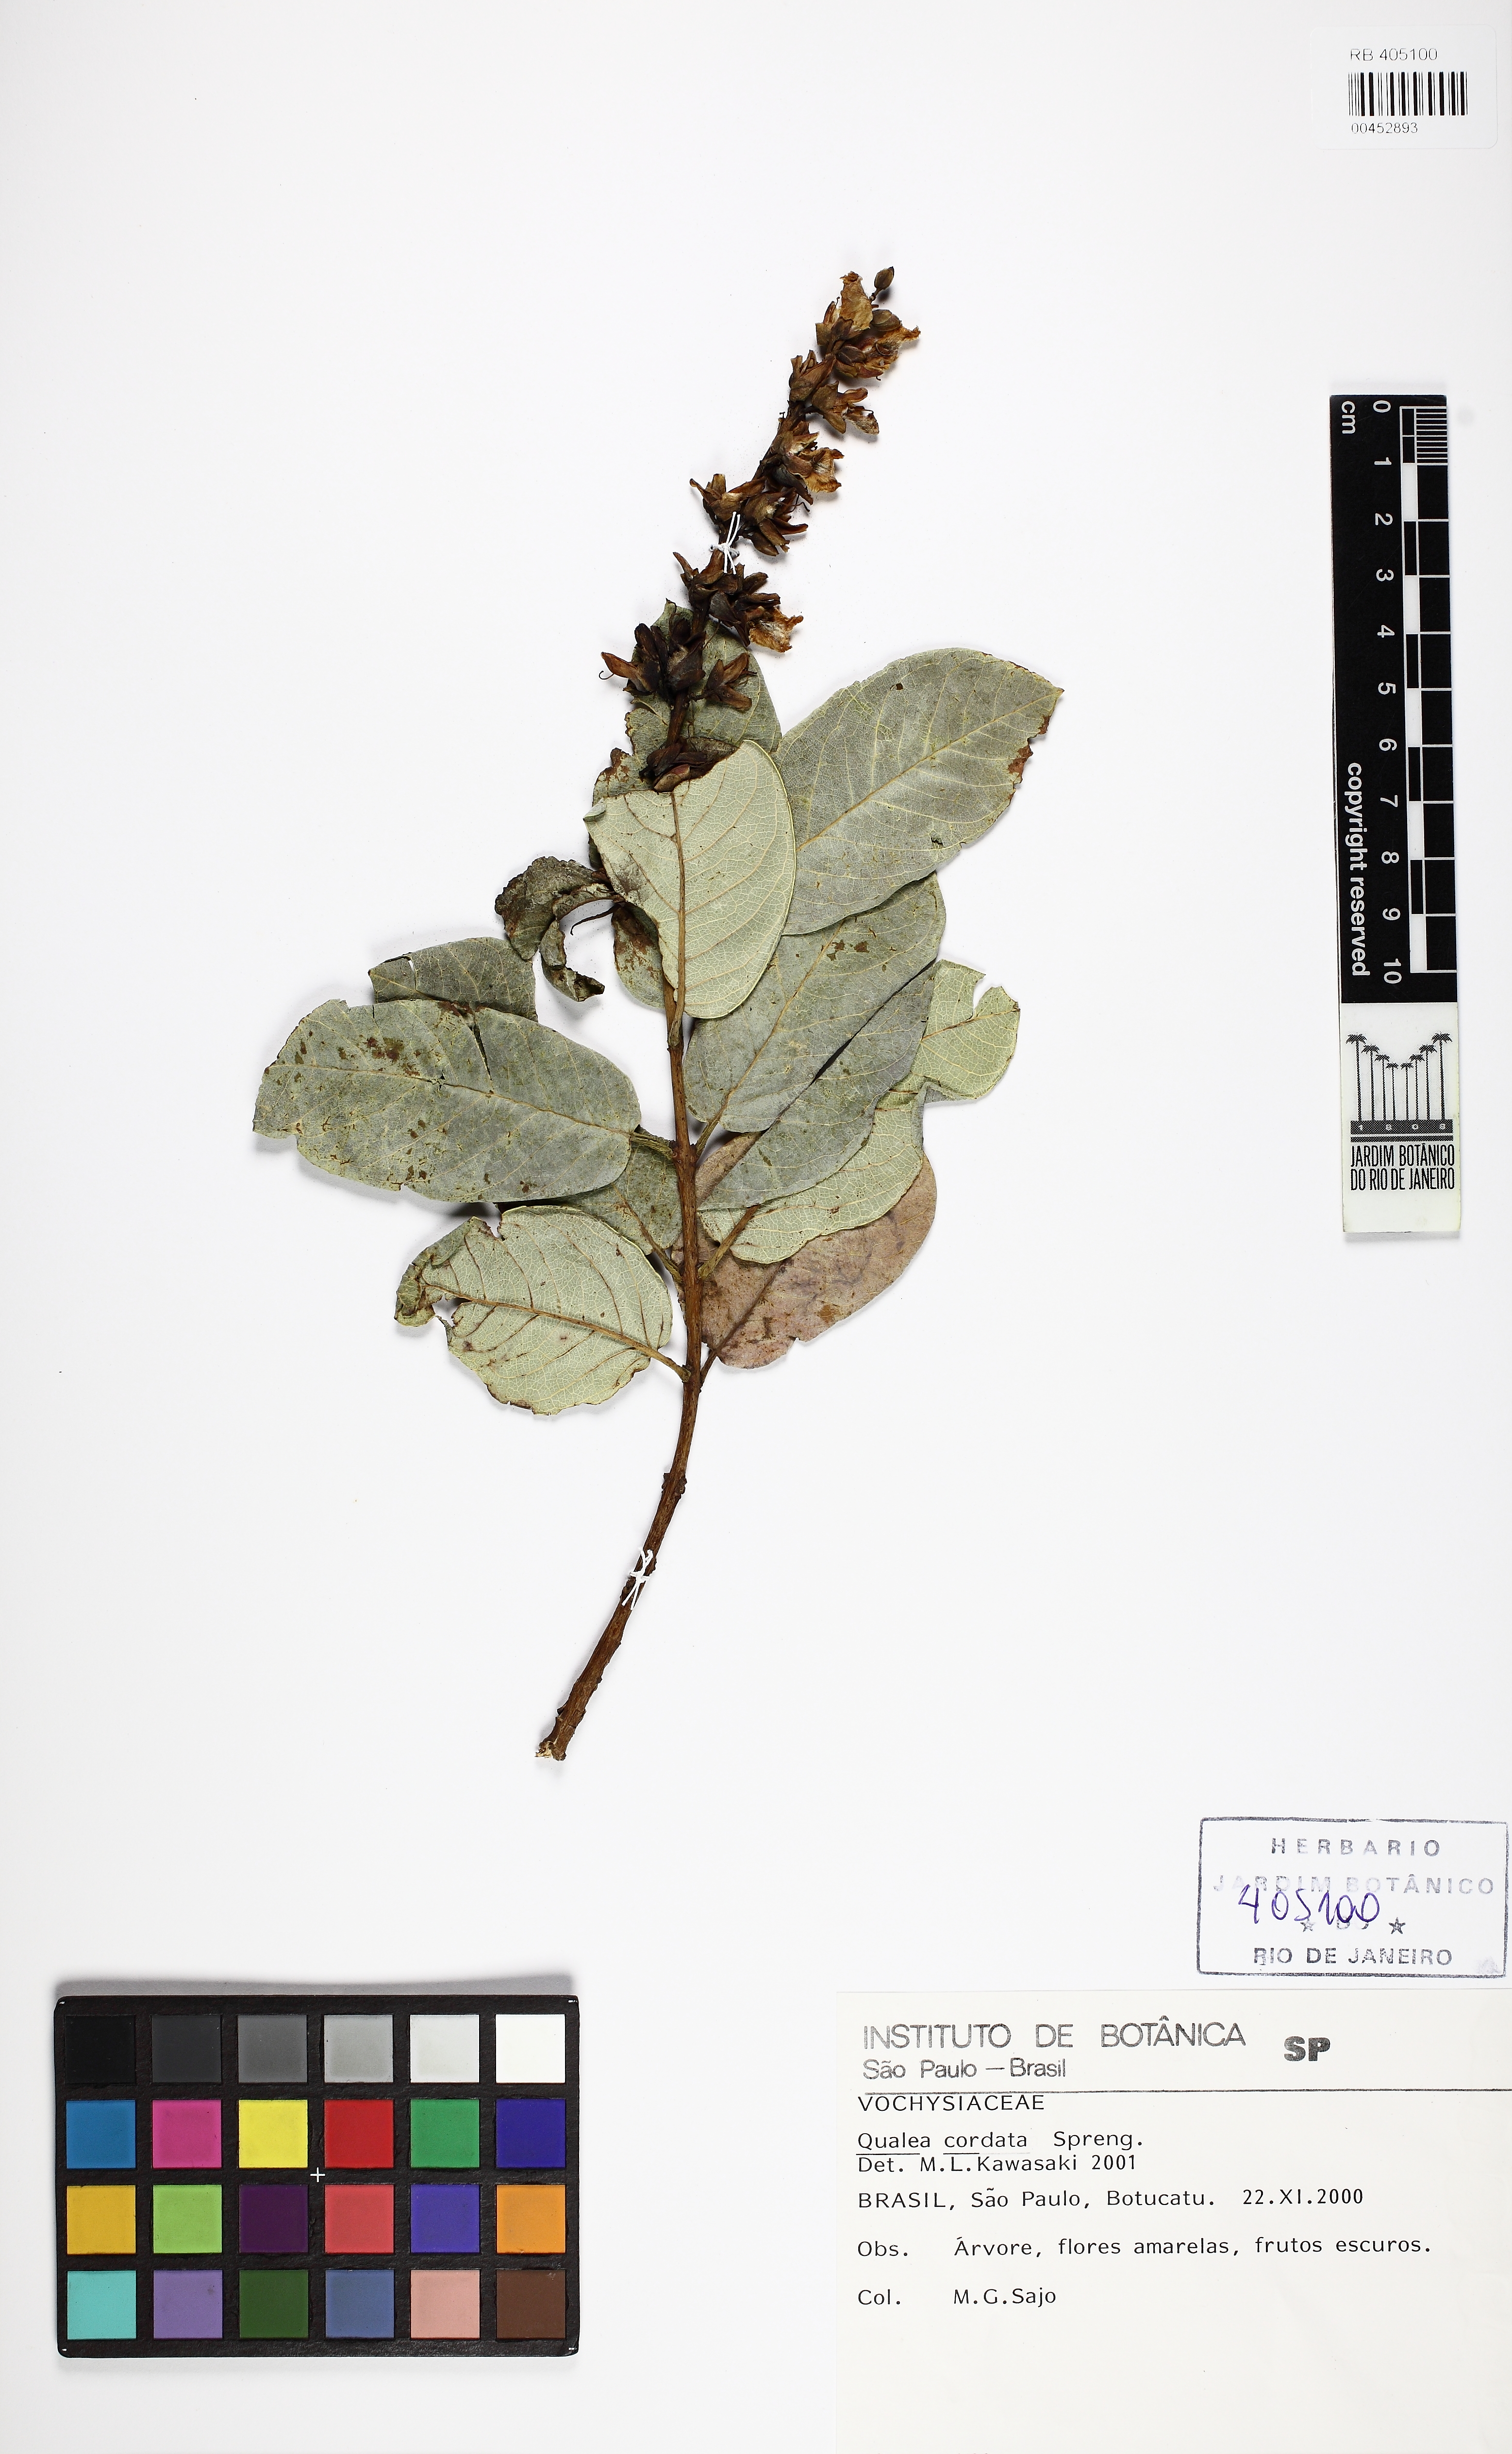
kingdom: Plantae
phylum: Tracheophyta
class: Magnoliopsida
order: Myrtales
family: Vochysiaceae
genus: Qualea
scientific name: Qualea cordata
